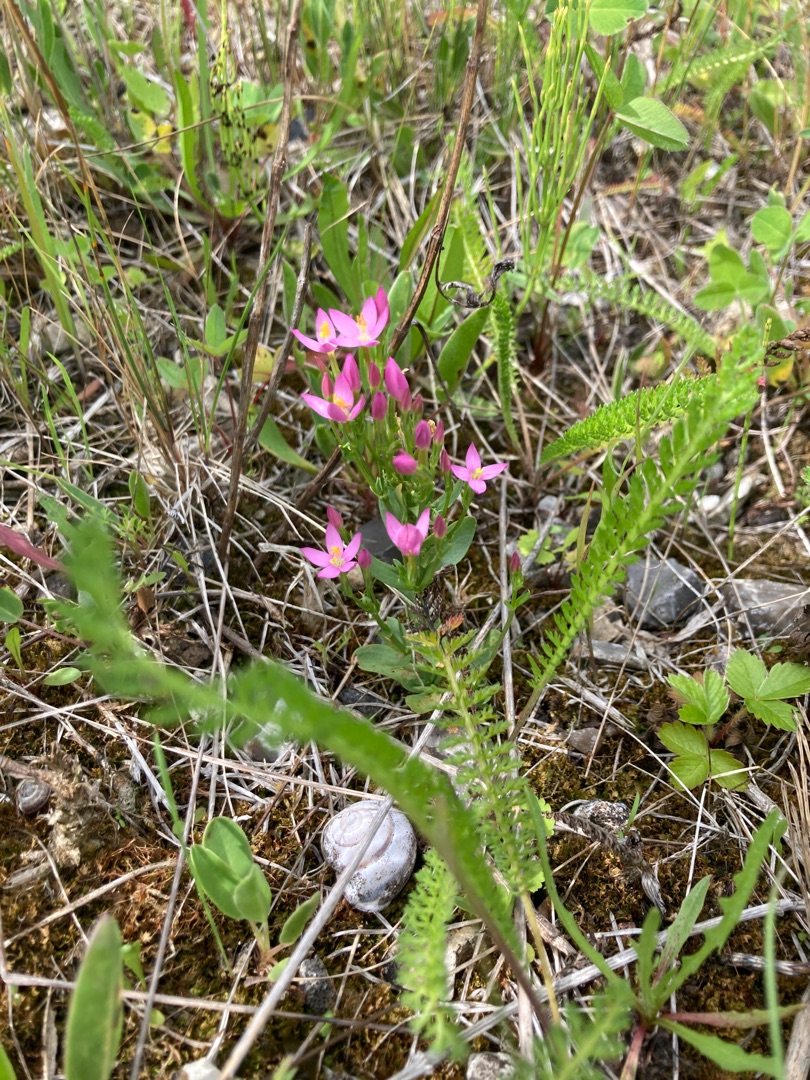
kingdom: Plantae
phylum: Tracheophyta
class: Magnoliopsida
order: Gentianales
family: Gentianaceae
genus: Centaurium
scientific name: Centaurium erythraea
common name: Mark-tusindgylden
